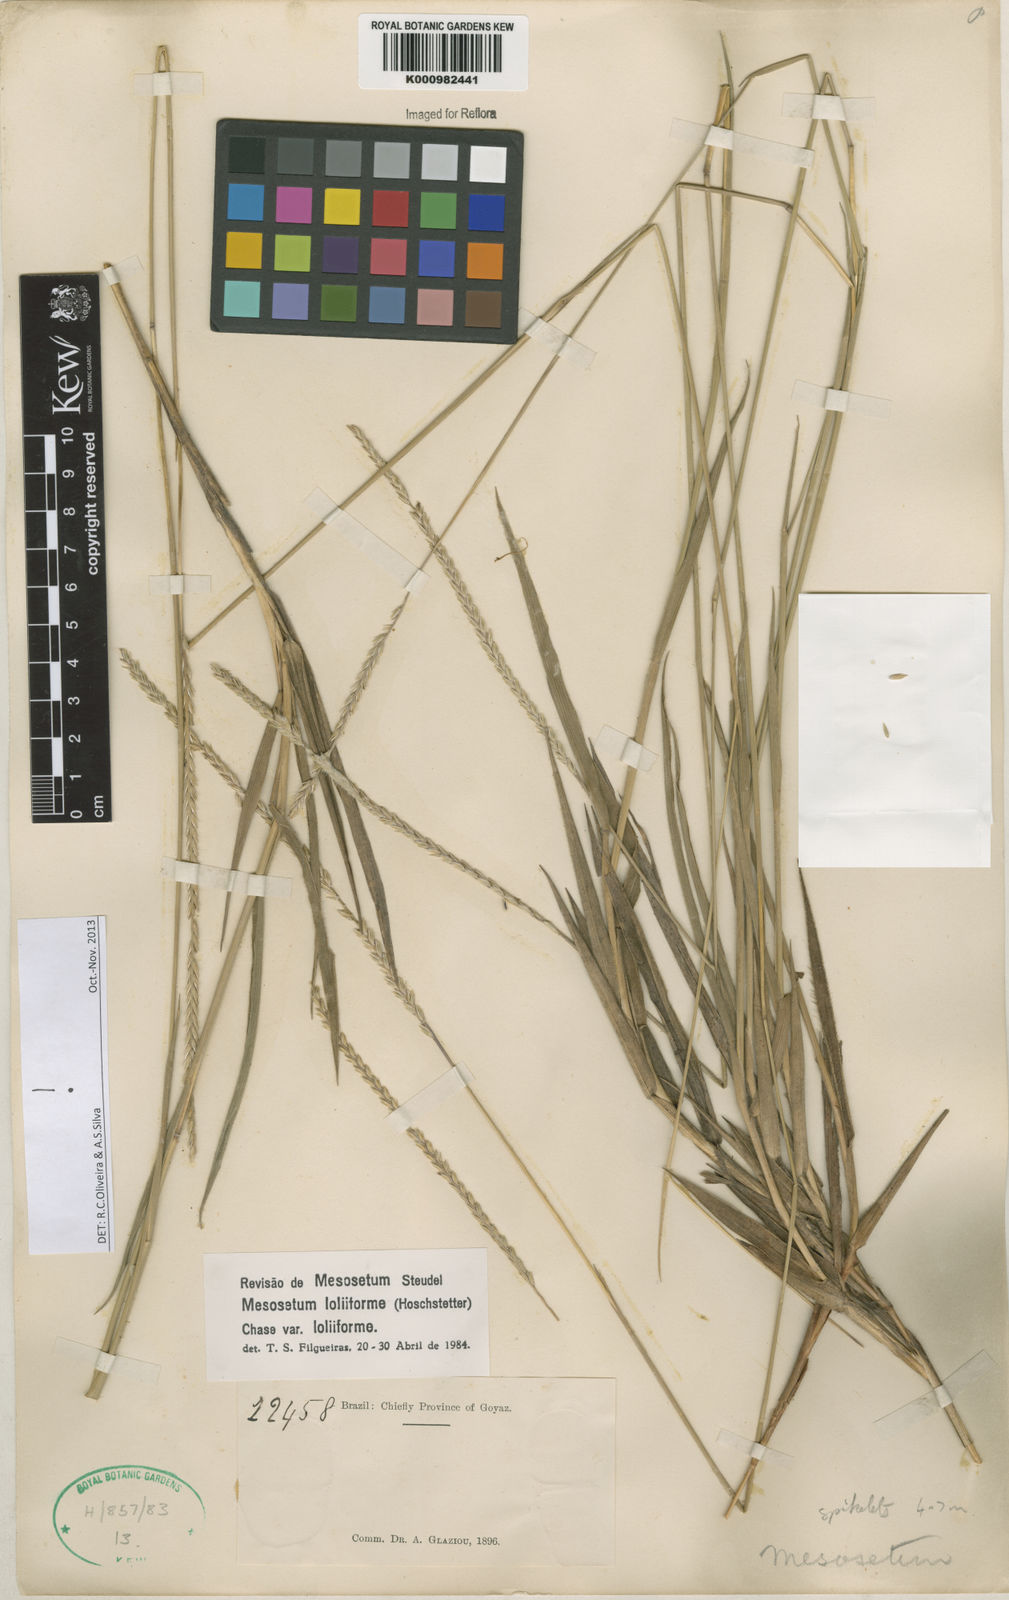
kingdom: Plantae
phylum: Tracheophyta
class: Liliopsida
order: Poales
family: Poaceae
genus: Mesosetum
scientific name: Mesosetum
